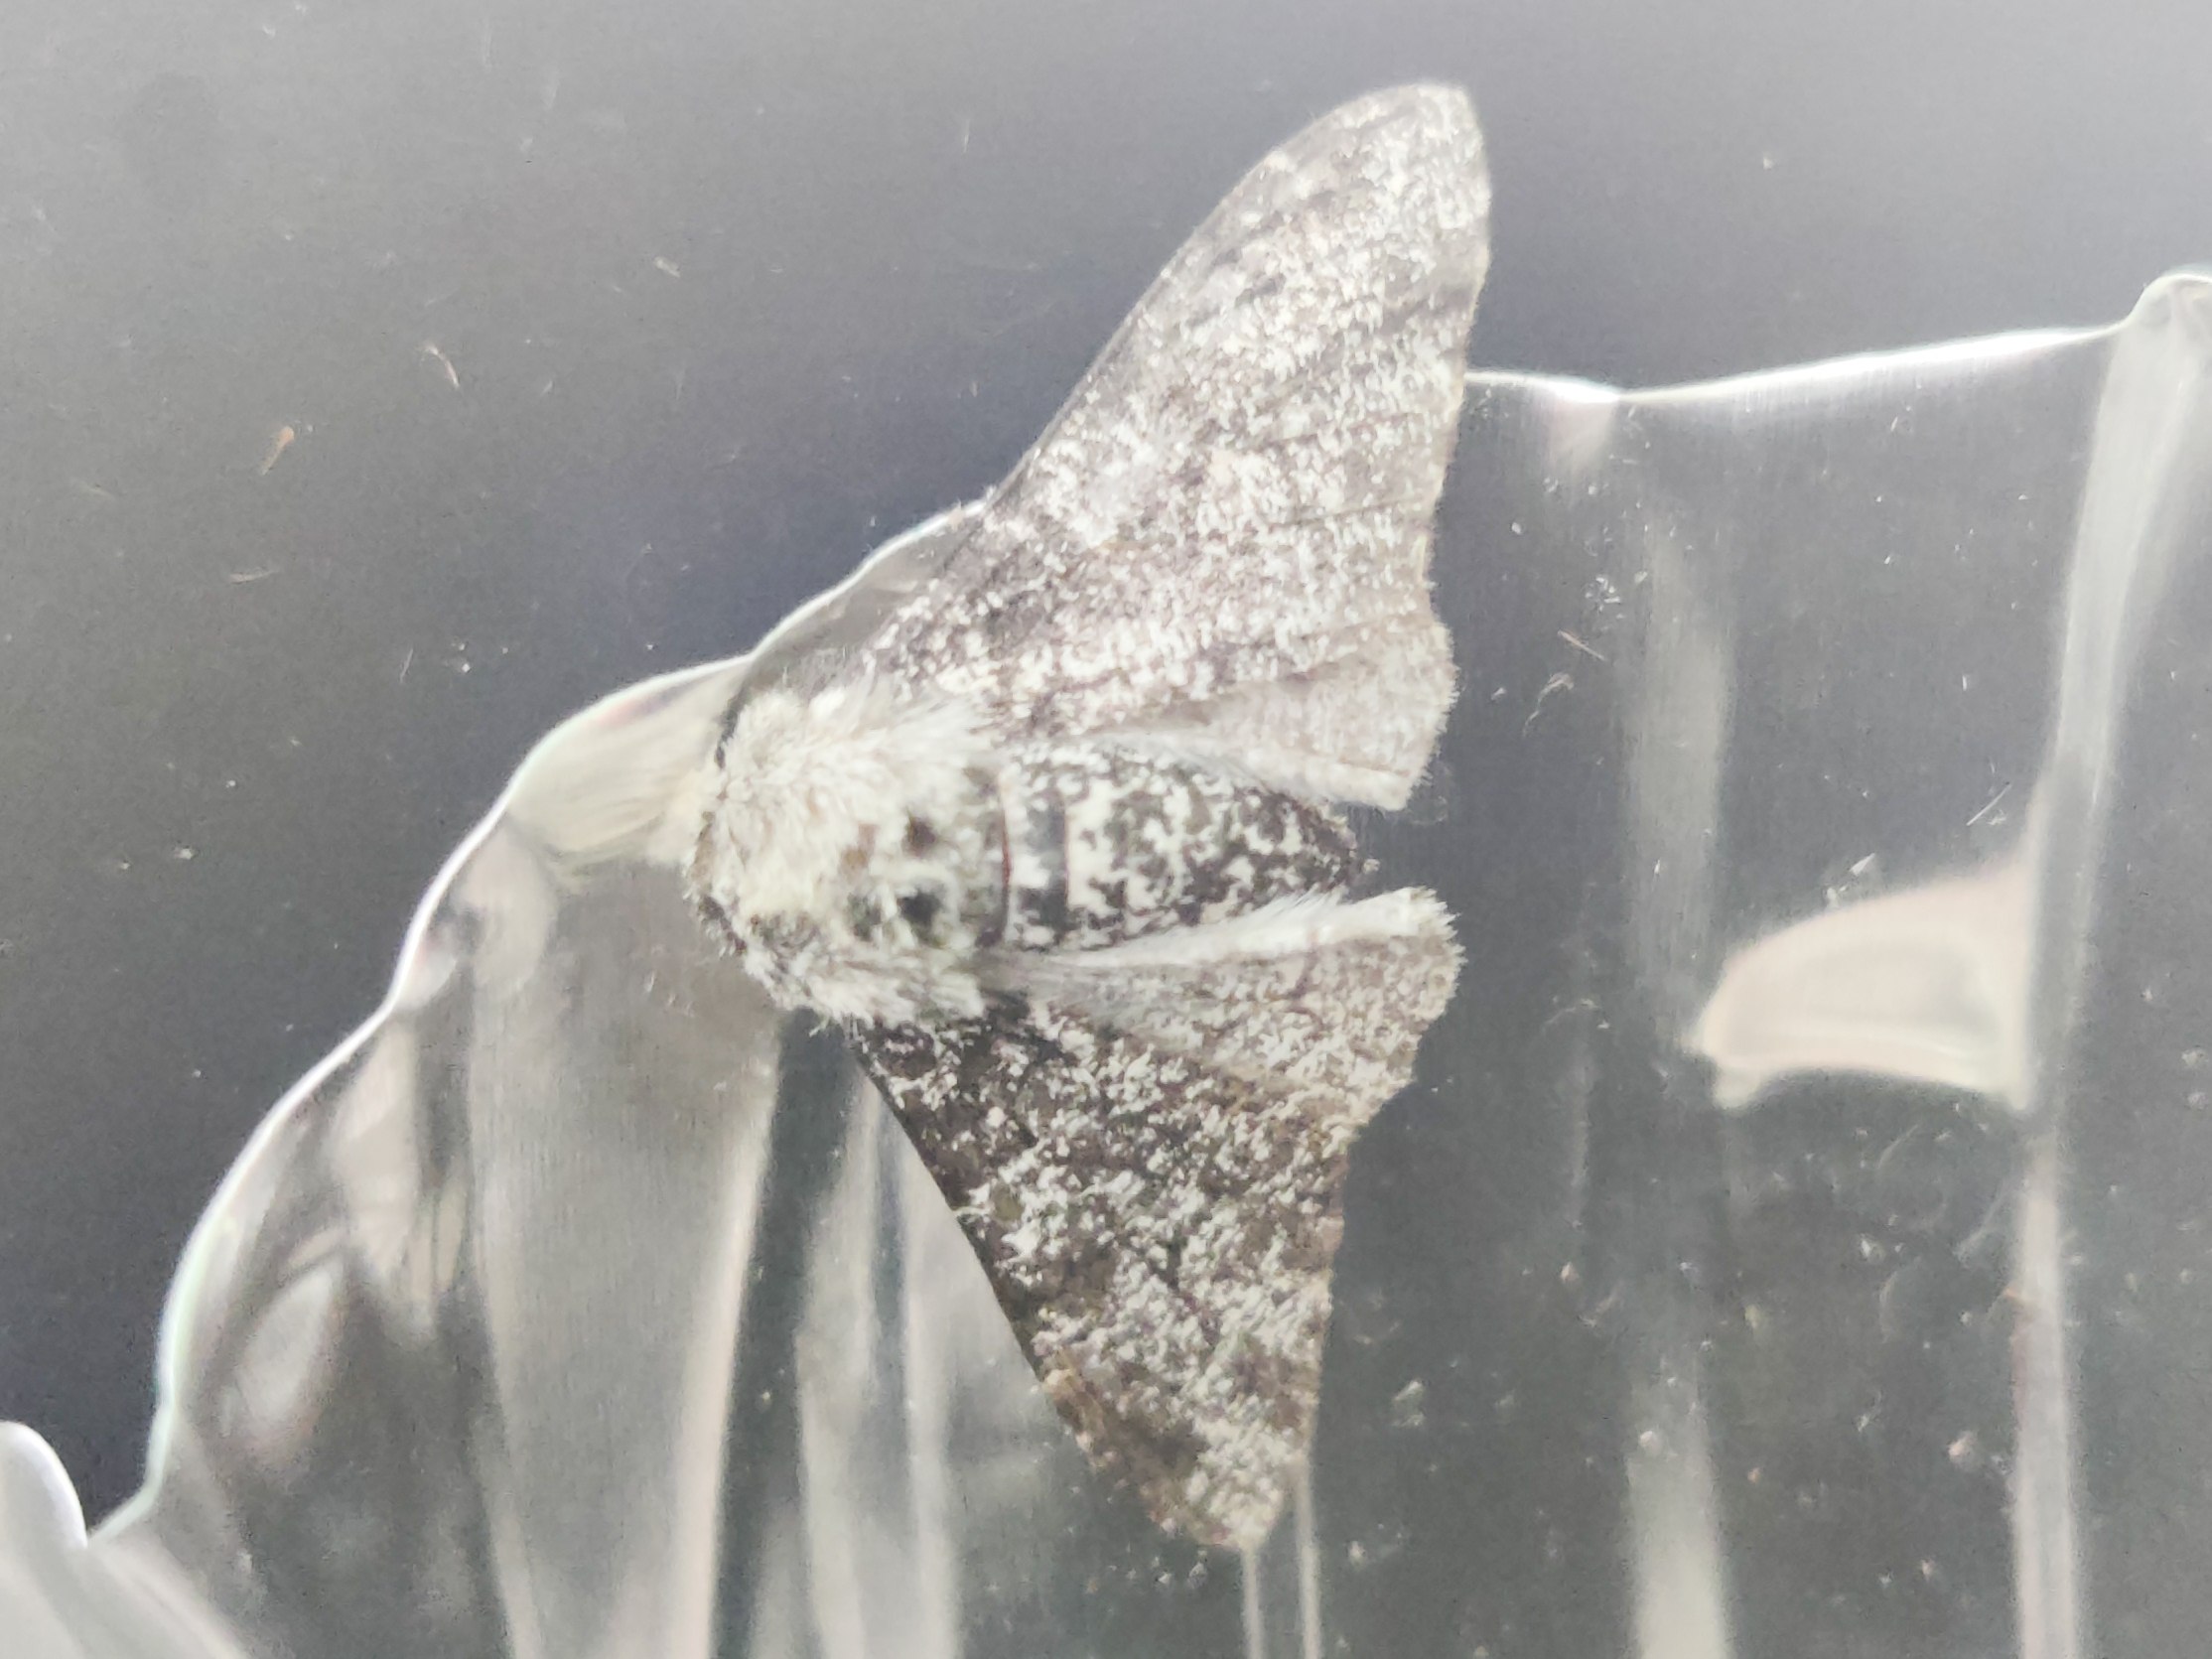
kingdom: Animalia
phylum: Arthropoda
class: Insecta
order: Lepidoptera
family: Geometridae
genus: Biston
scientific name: Biston betularia
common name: Birkemåler
